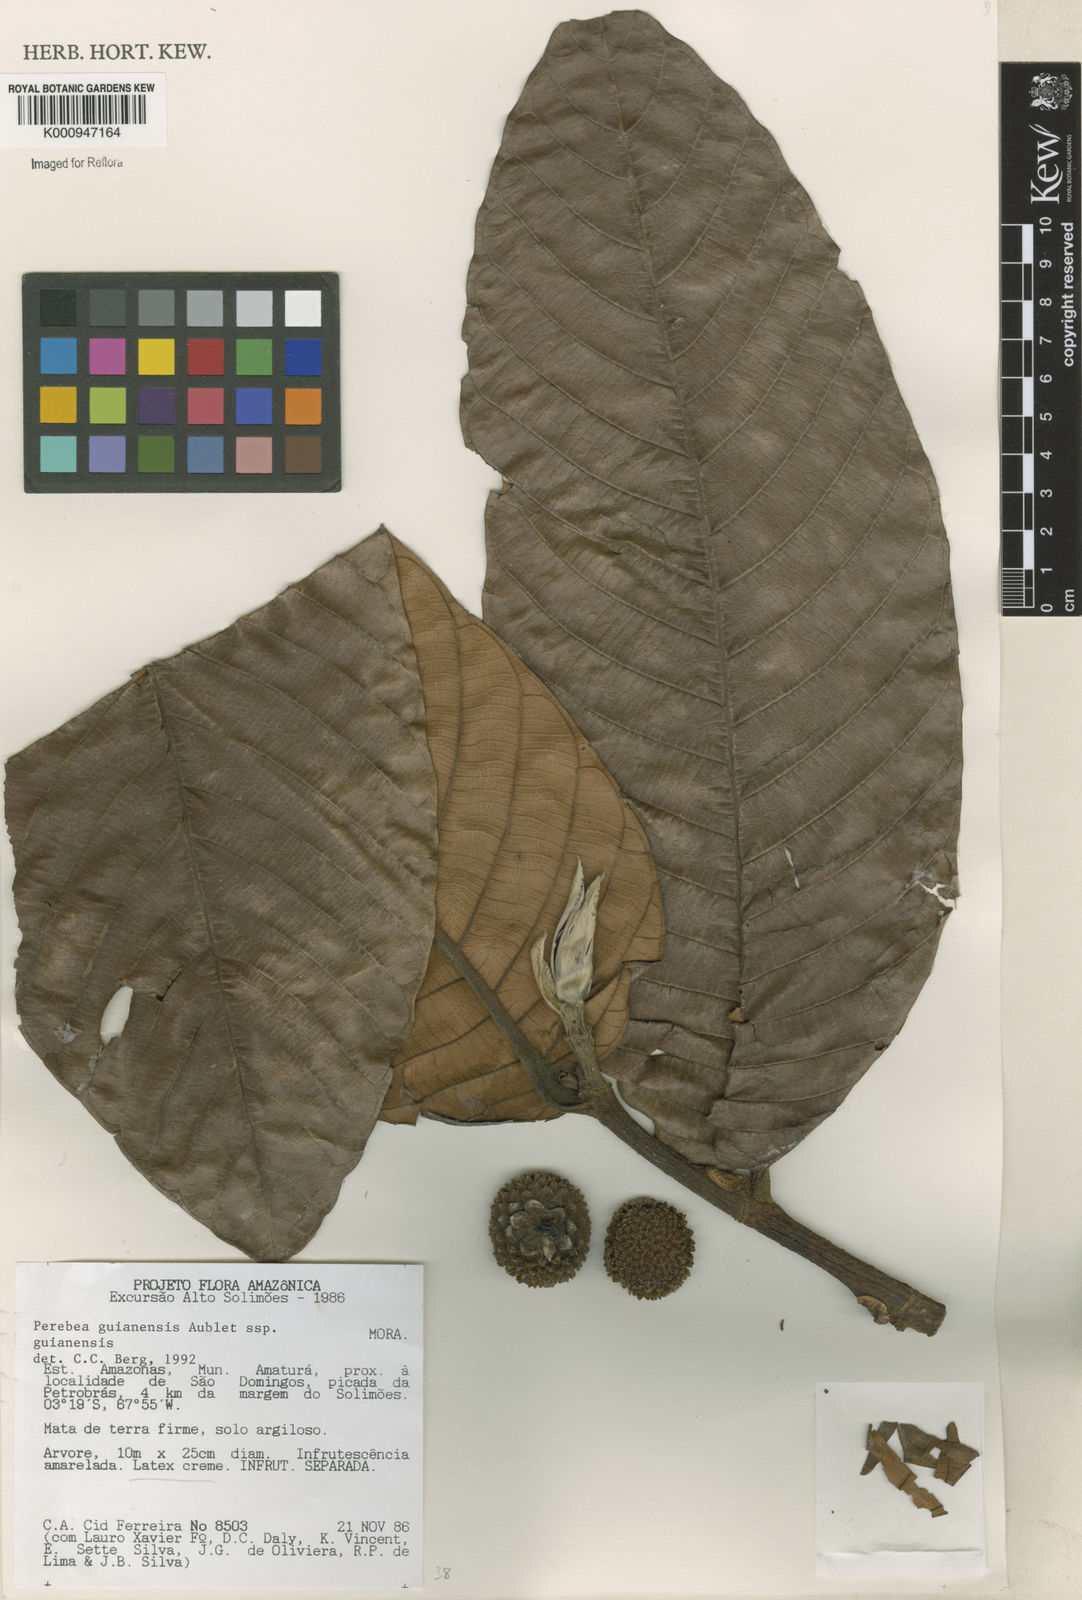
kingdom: Plantae
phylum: Tracheophyta
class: Magnoliopsida
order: Rosales
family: Moraceae
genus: Perebea
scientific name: Perebea guianensis
